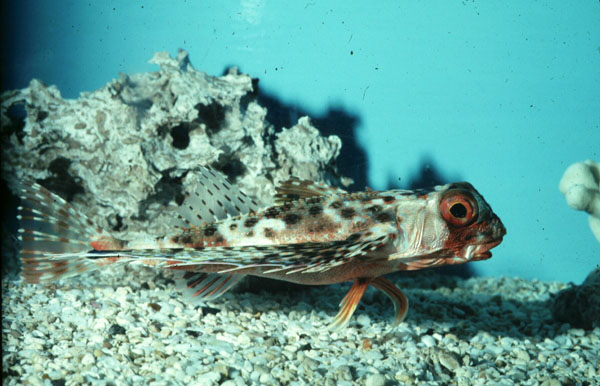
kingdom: Animalia
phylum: Chordata
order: Scorpaeniformes
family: Dactylopteridae
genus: Dactyloptena
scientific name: Dactyloptena orientalis
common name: Flying gurnard
